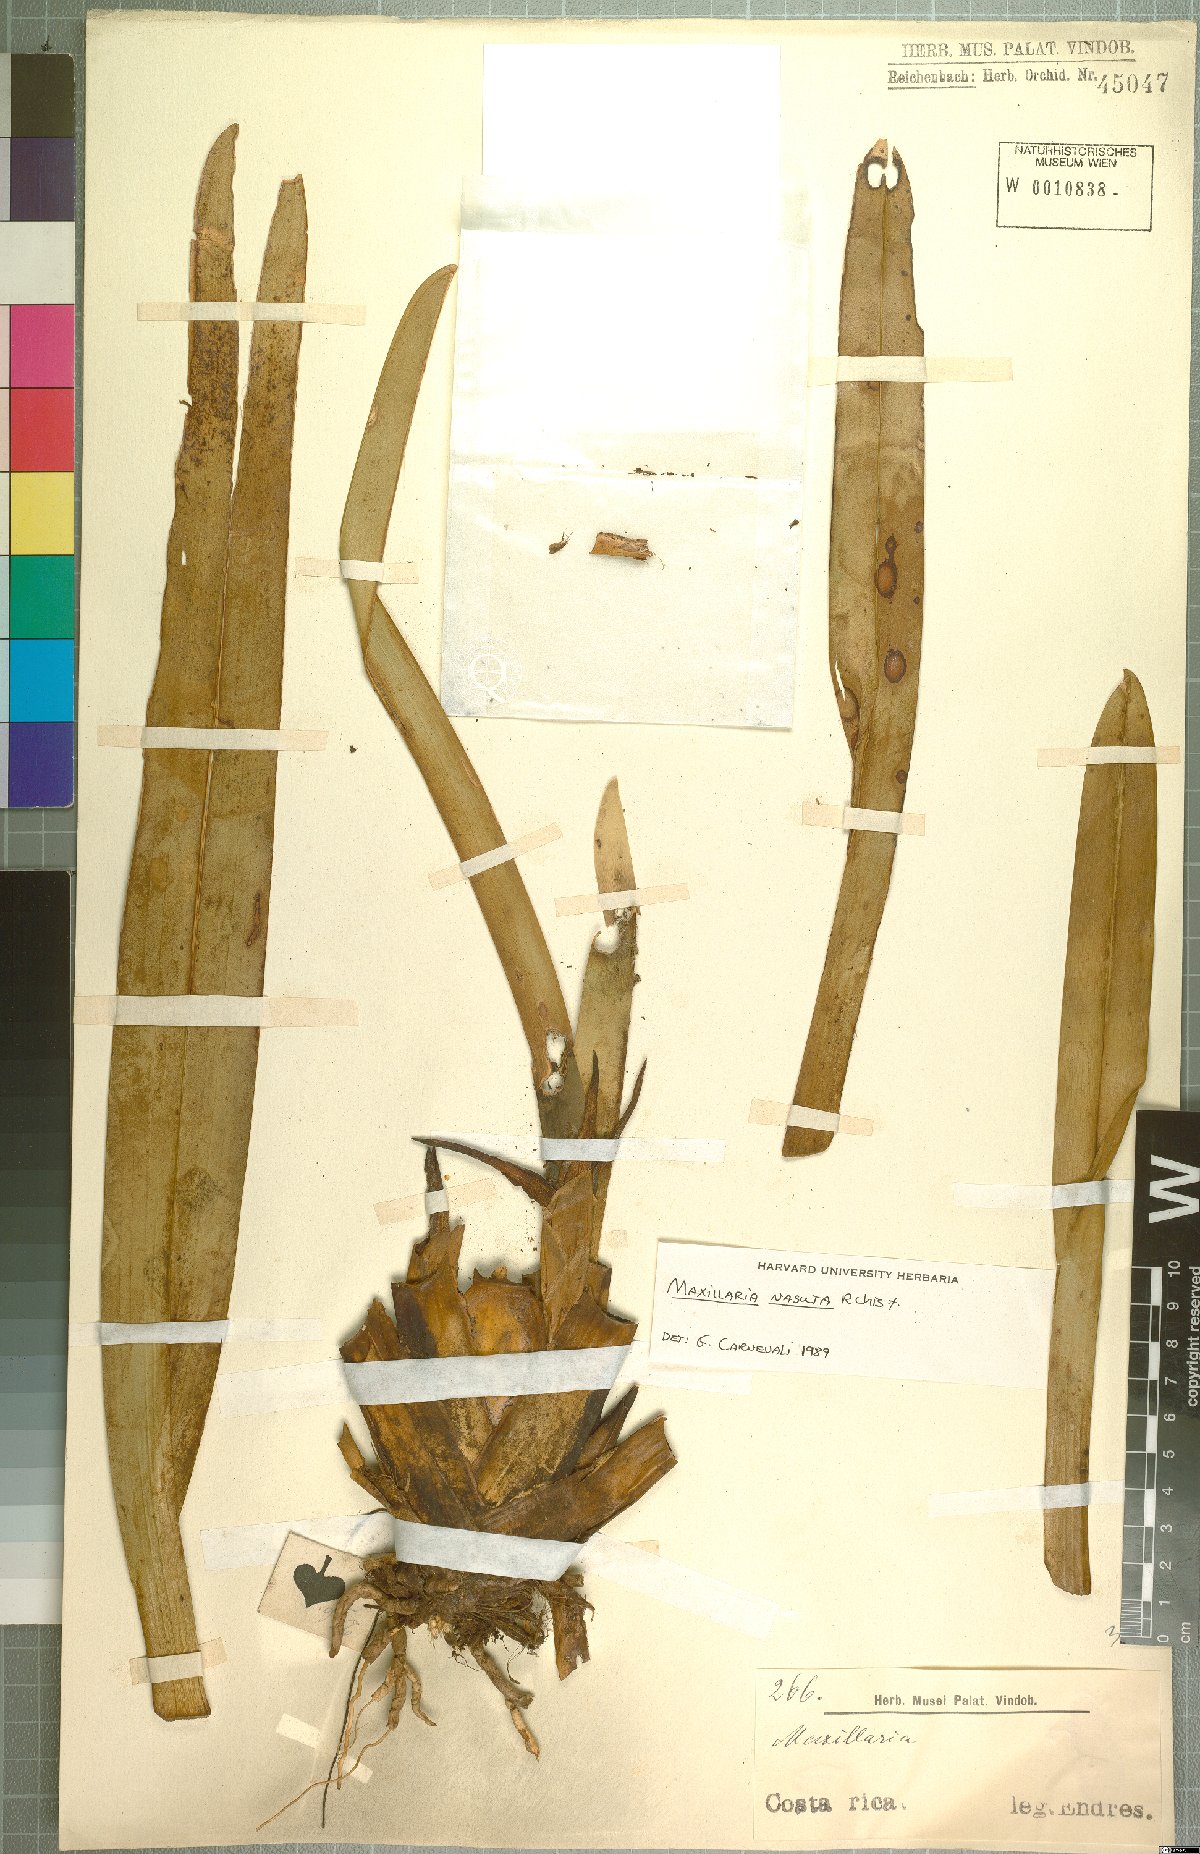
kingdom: Plantae
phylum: Tracheophyta
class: Liliopsida
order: Asparagales
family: Orchidaceae
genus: Maxillaria
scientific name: Maxillaria nasuta
